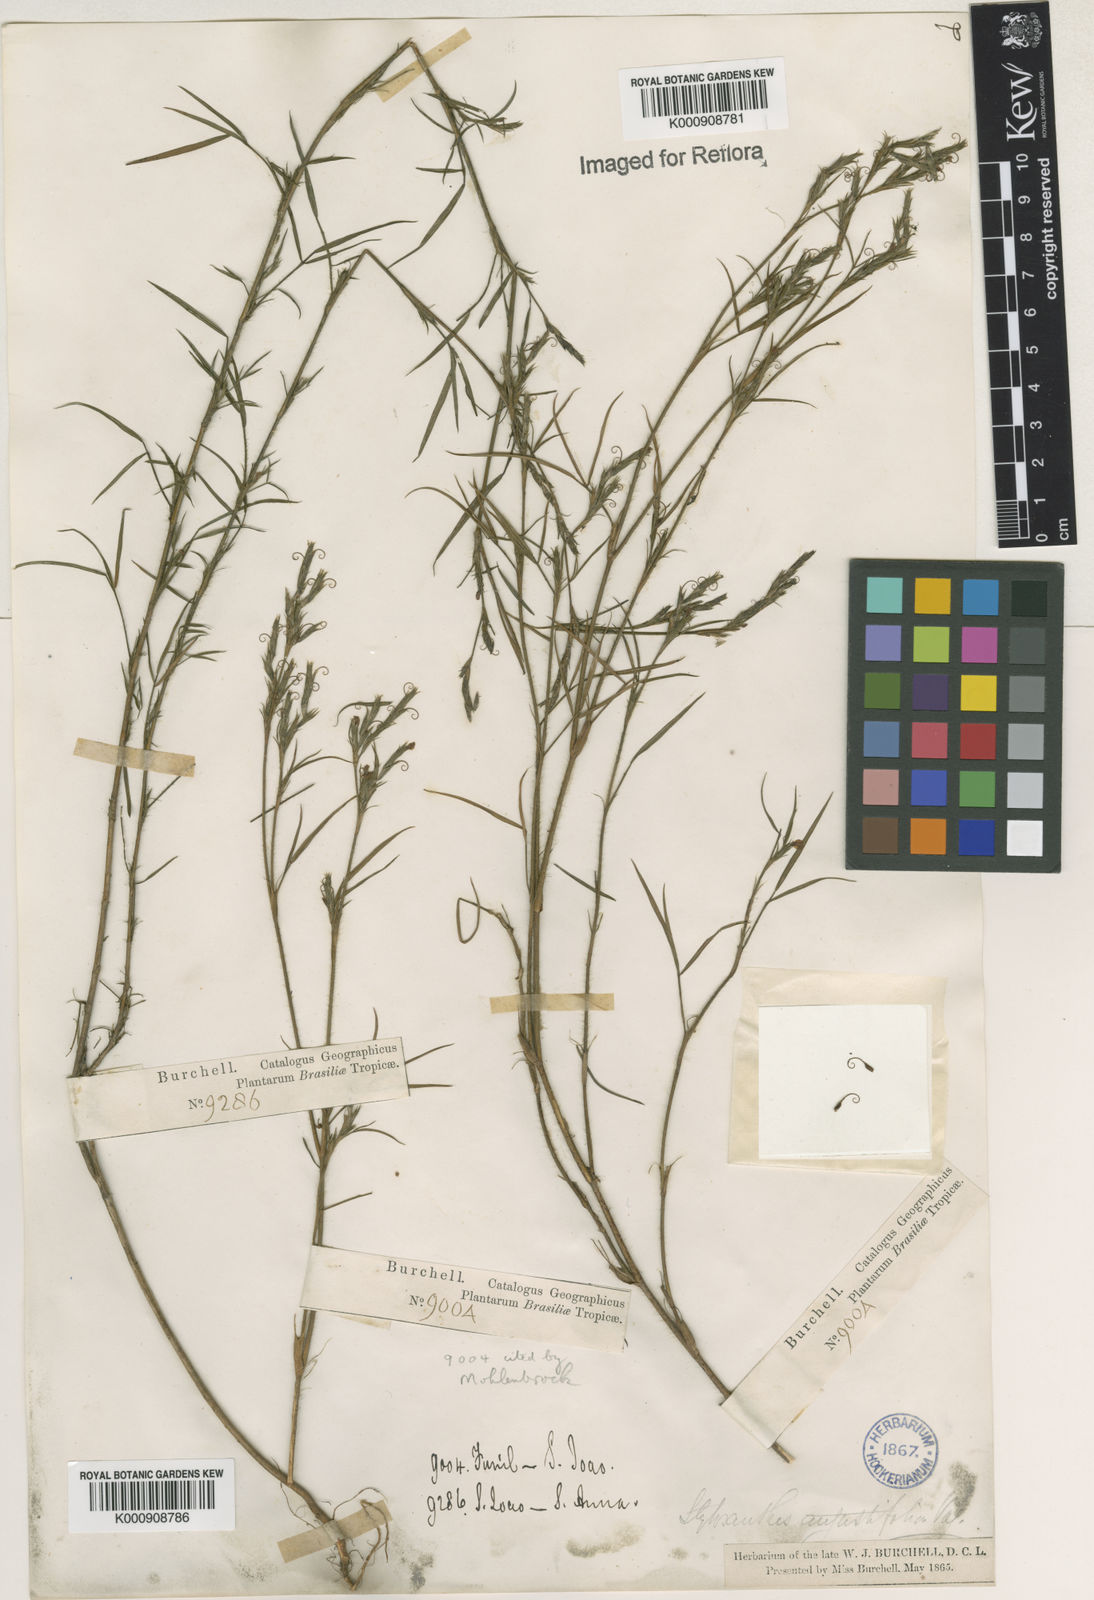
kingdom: Plantae
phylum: Tracheophyta
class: Magnoliopsida
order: Fabales
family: Fabaceae
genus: Stylosanthes
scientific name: Stylosanthes angustifolia
